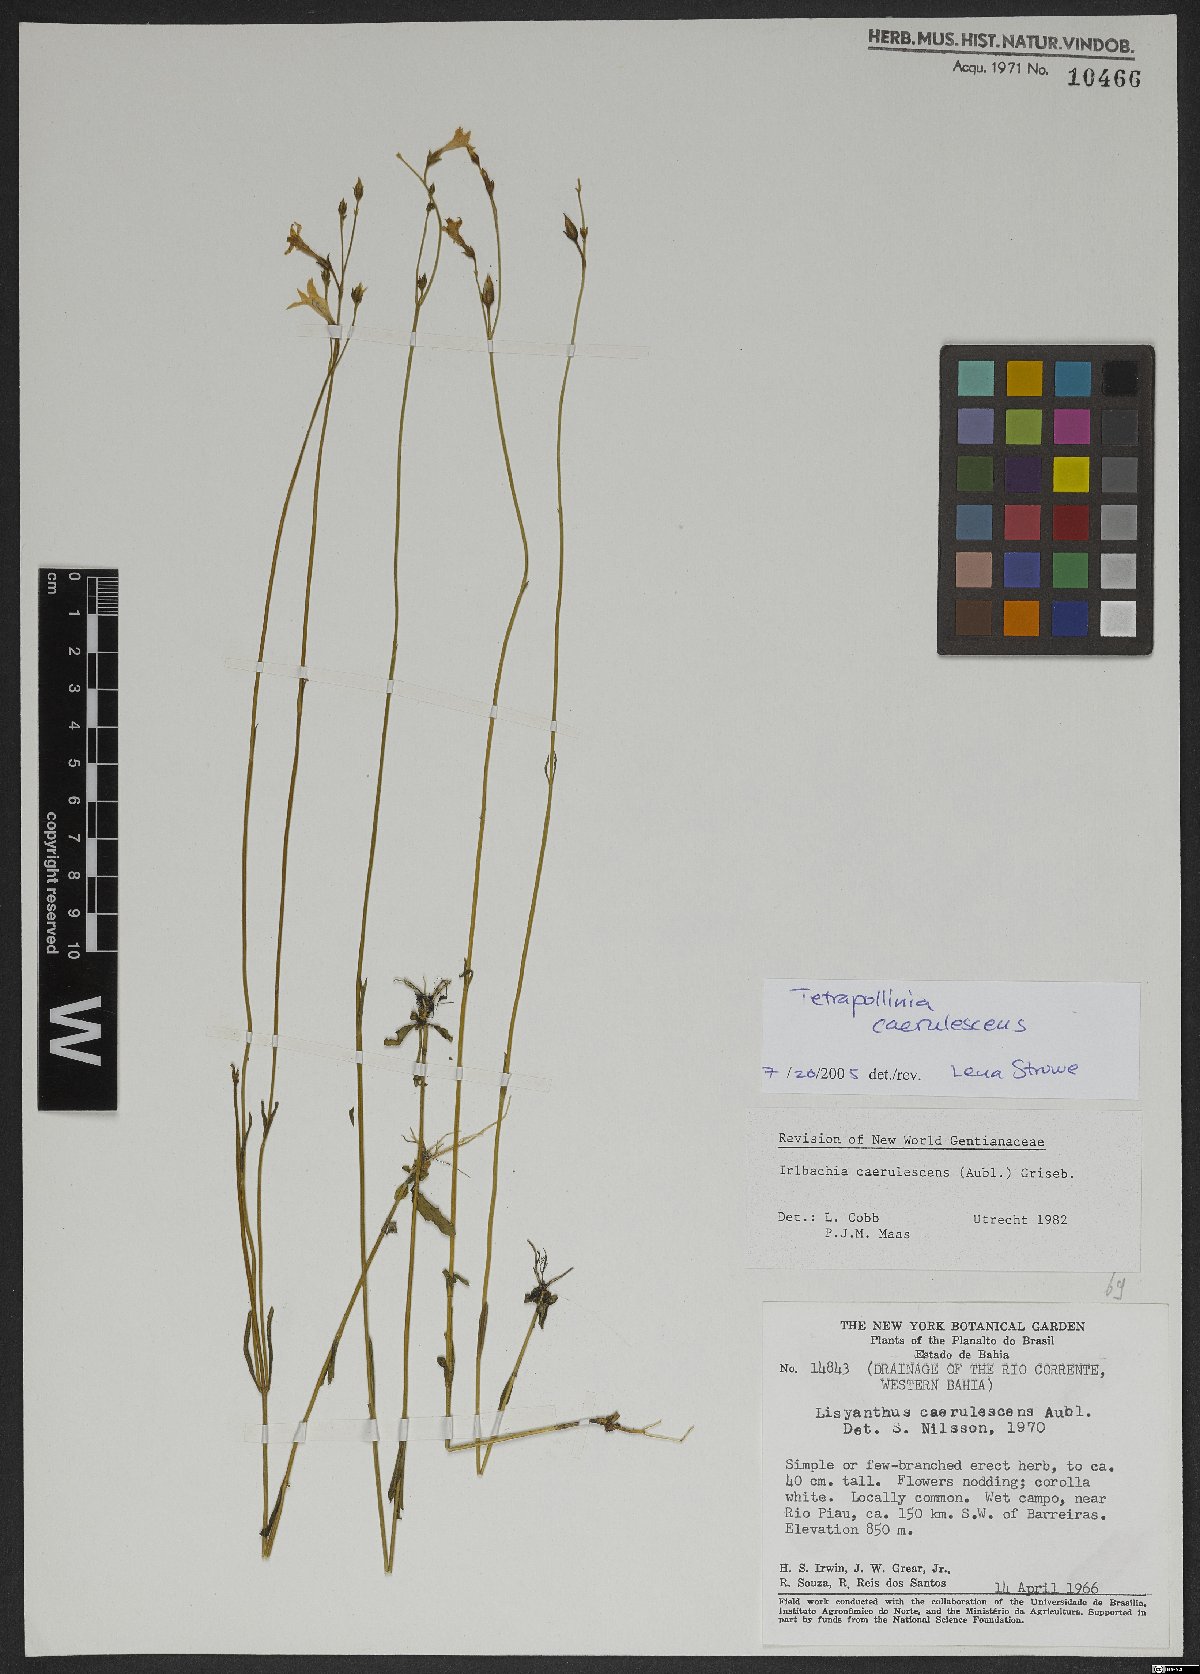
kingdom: Plantae
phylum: Tracheophyta
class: Magnoliopsida
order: Gentianales
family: Gentianaceae
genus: Tetrapollinia
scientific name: Tetrapollinia caerulescens
